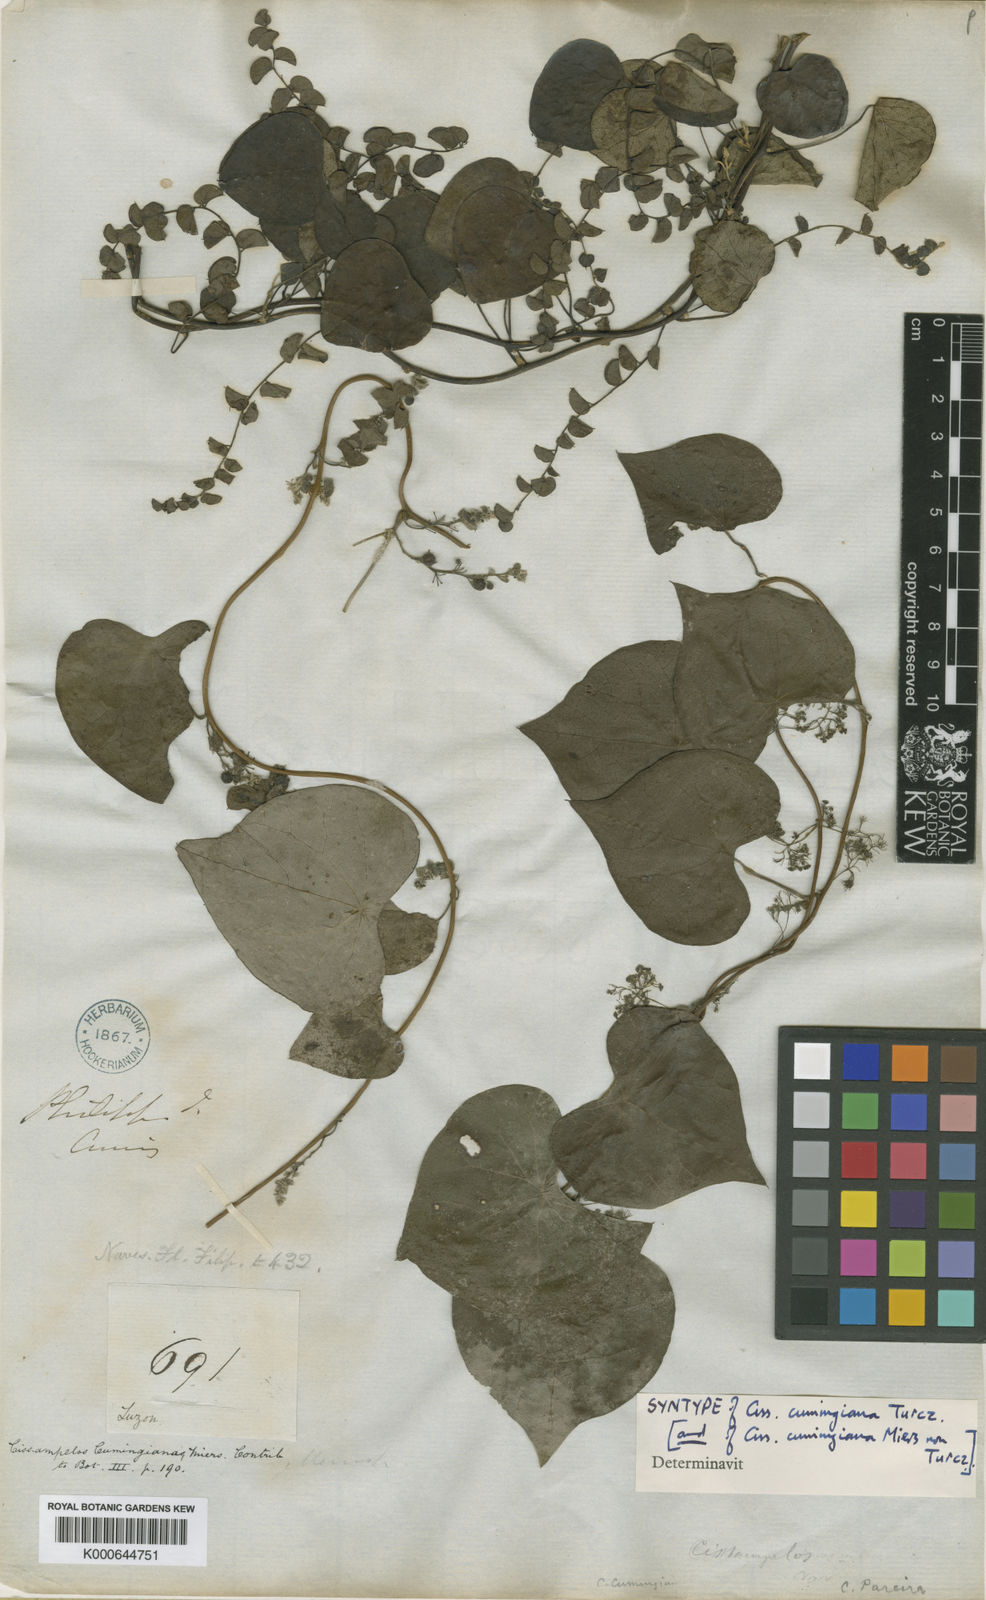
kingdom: Plantae
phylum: Tracheophyta
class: Magnoliopsida
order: Ranunculales
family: Menispermaceae
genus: Cissampelos
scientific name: Cissampelos pareira
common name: Velvetleaf
